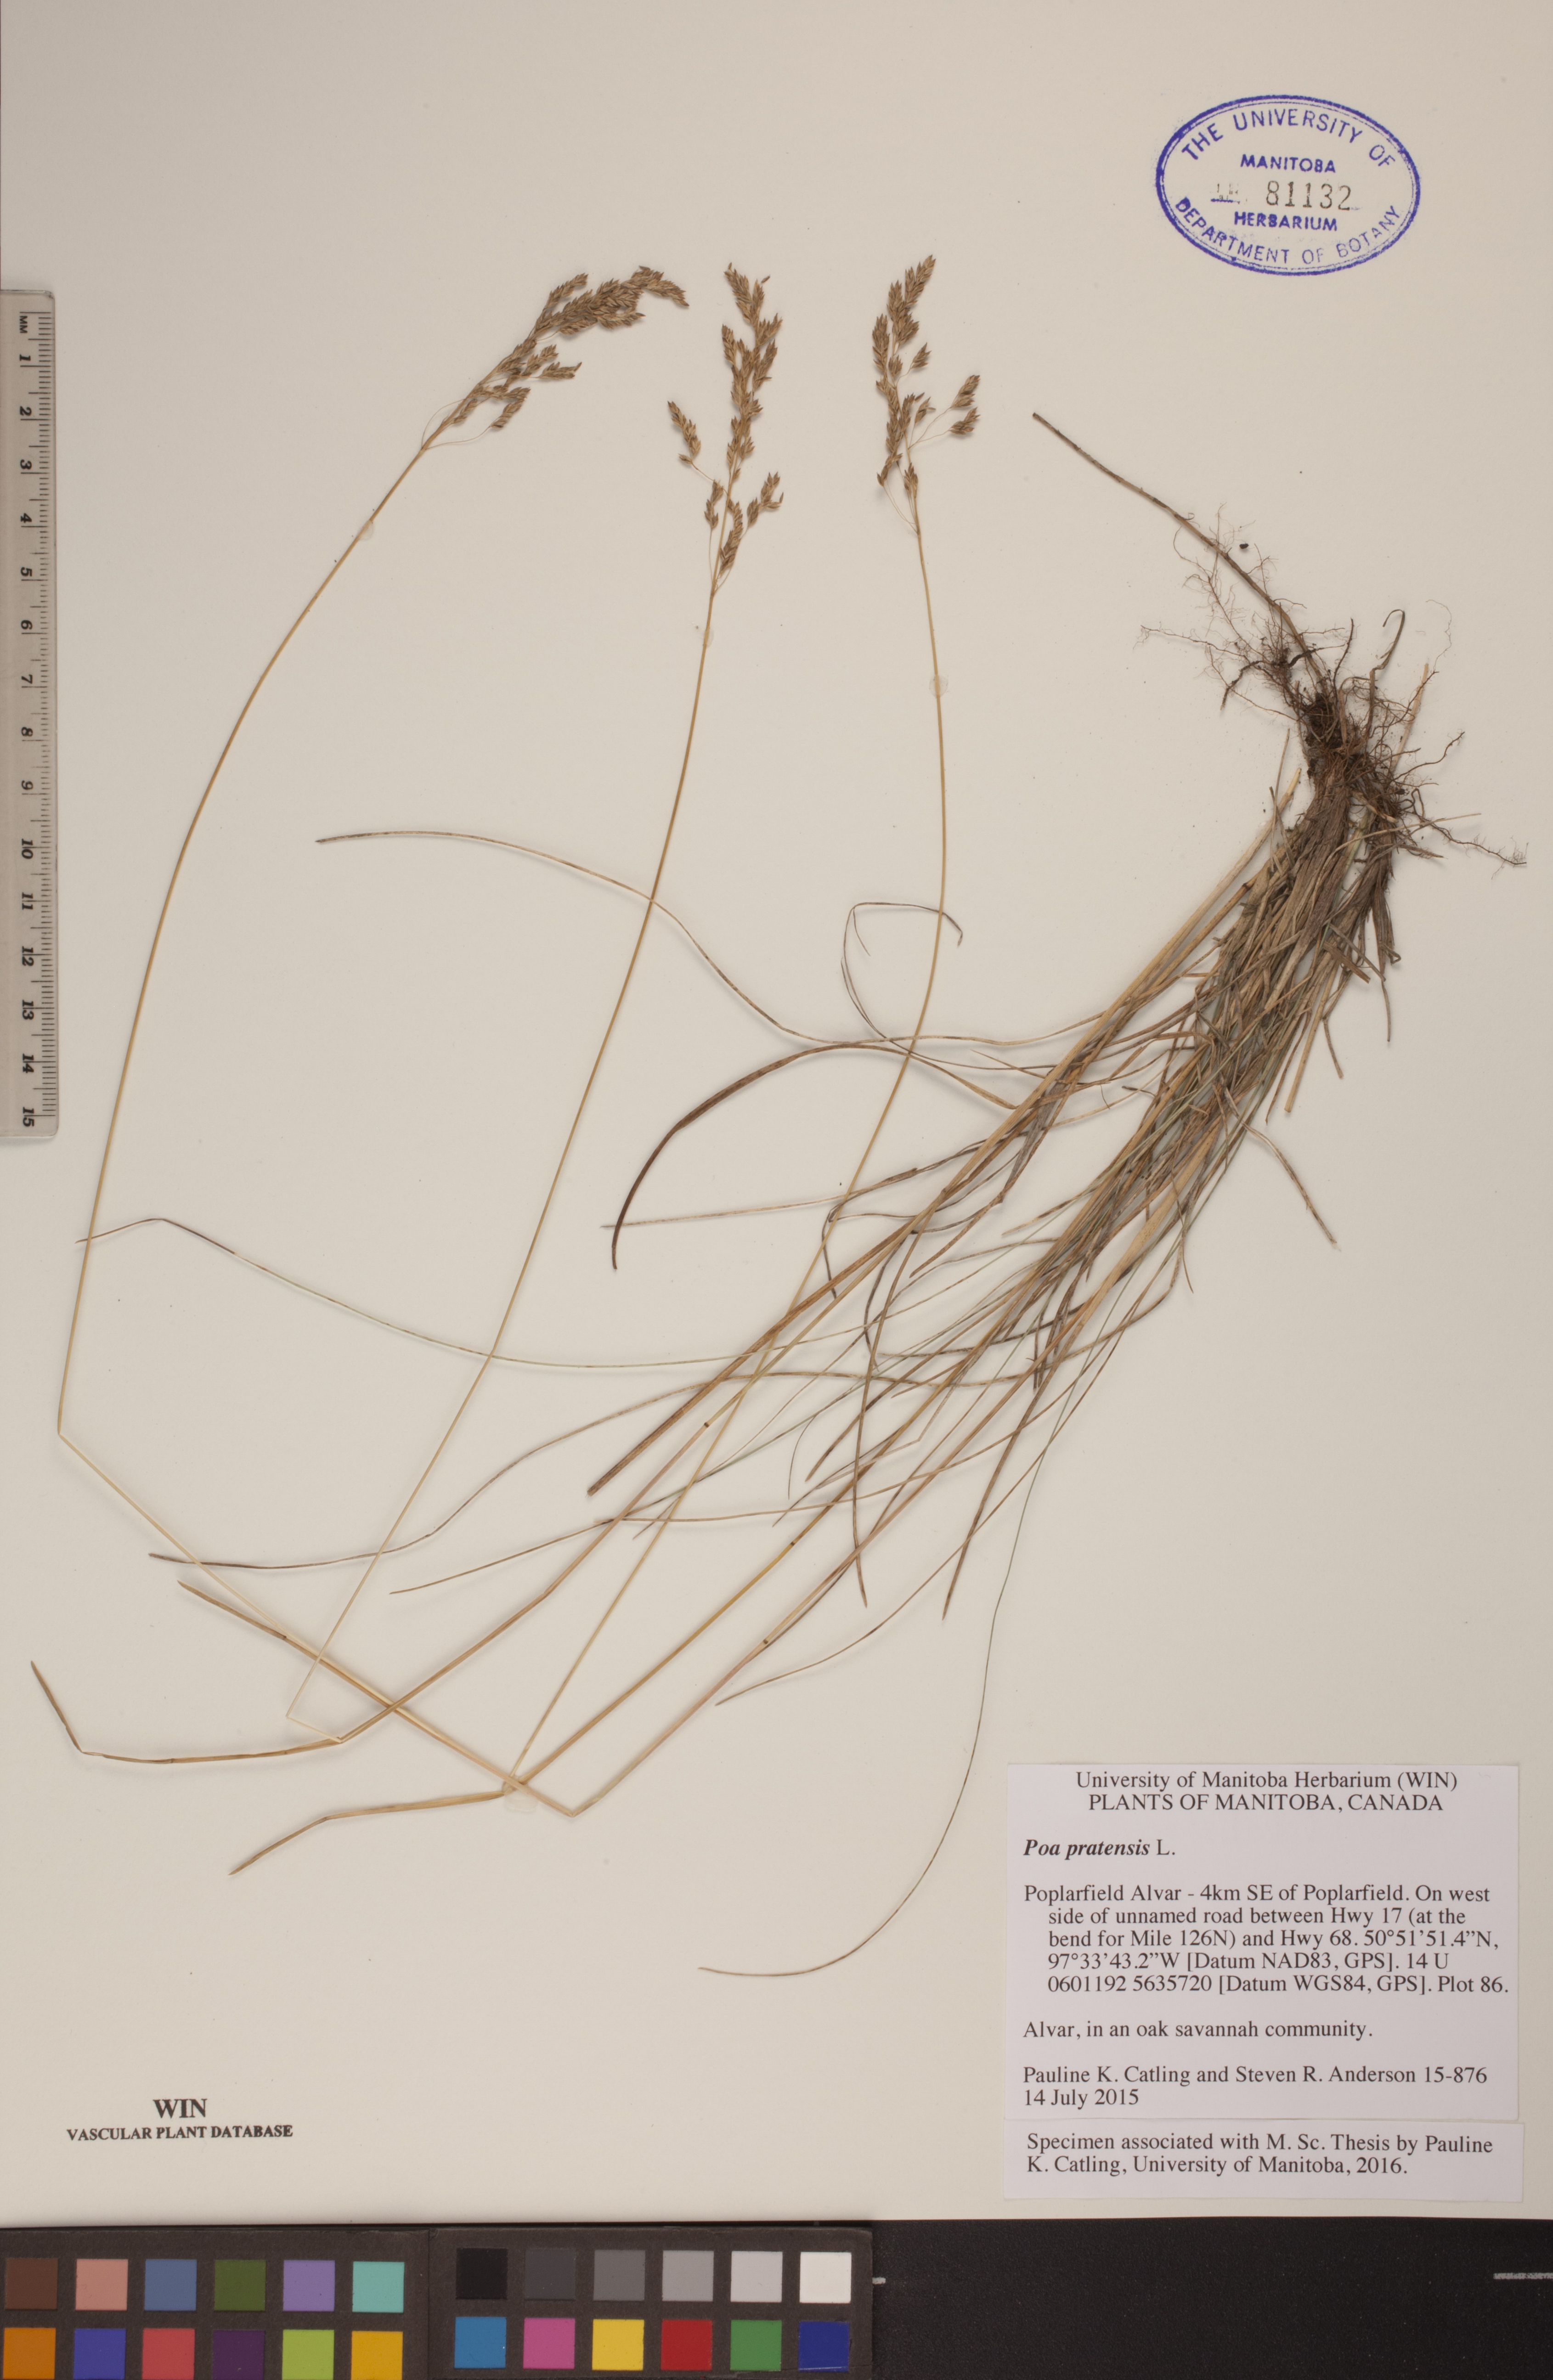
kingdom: Plantae
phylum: Tracheophyta
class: Liliopsida
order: Poales
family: Poaceae
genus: Poa
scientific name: Poa pratensis
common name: Kentucky bluegrass
